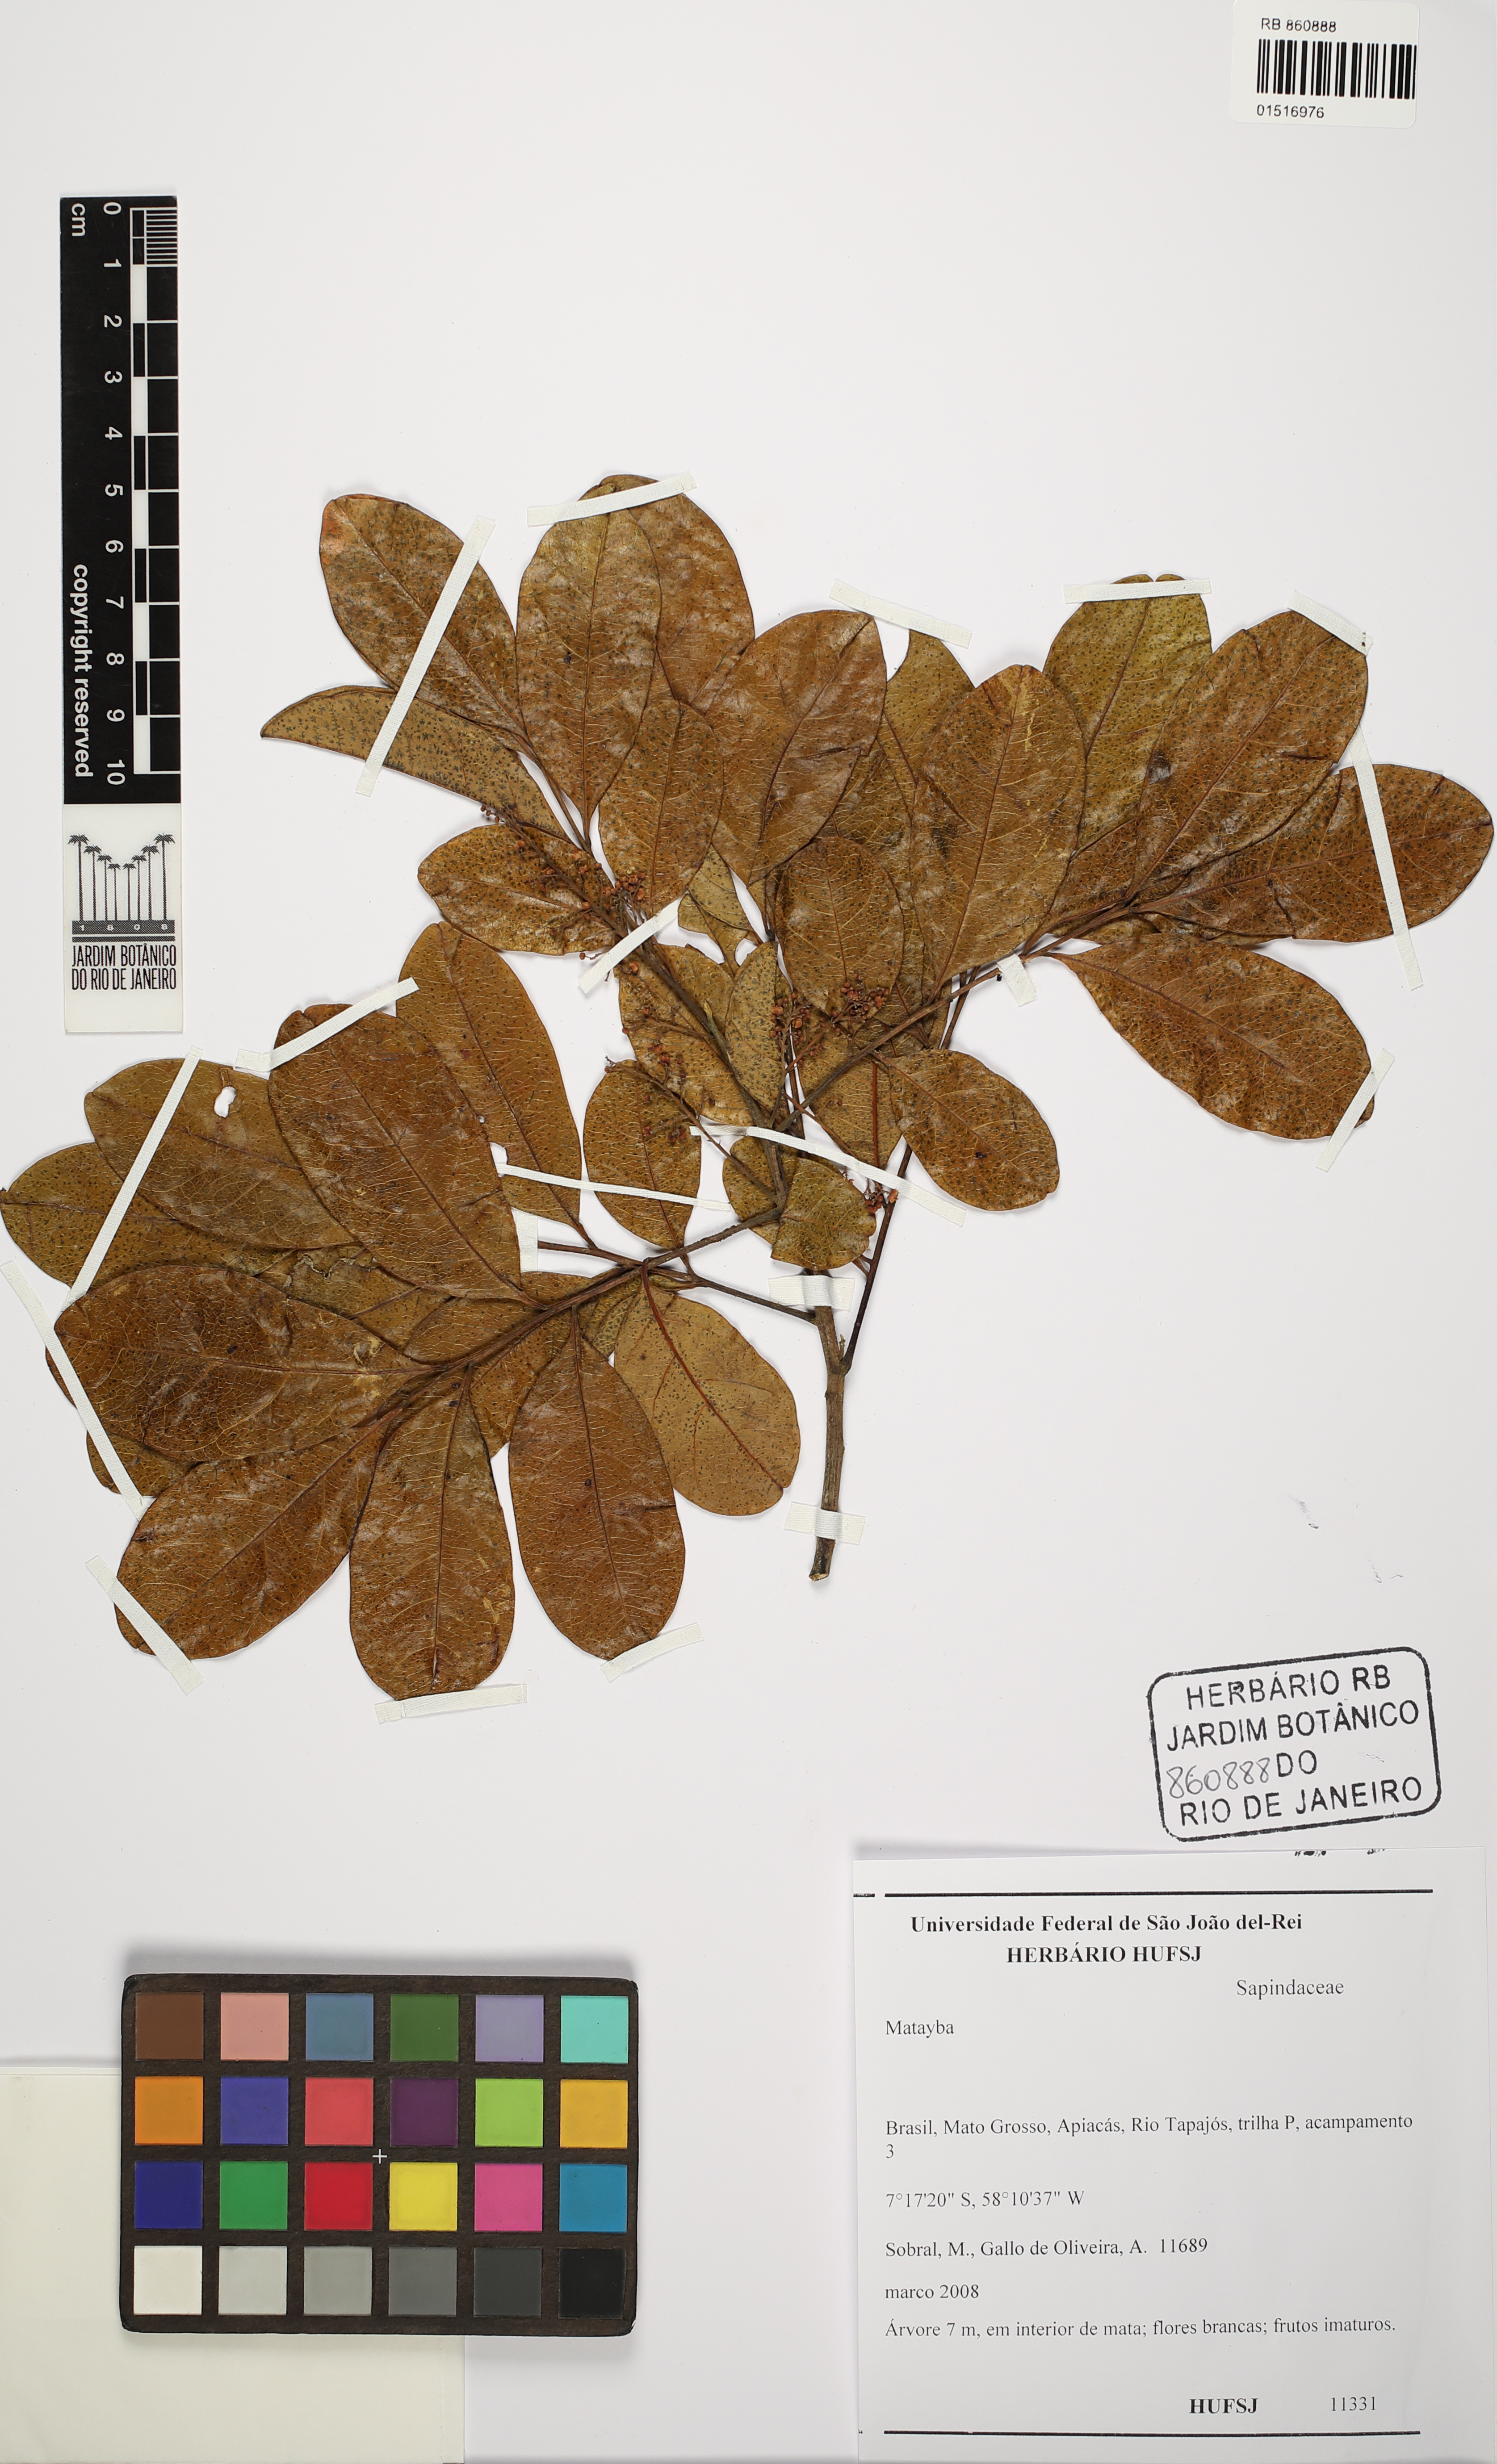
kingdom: Plantae
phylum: Tracheophyta
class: Magnoliopsida
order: Sapindales
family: Sapindaceae
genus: Matayba
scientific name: Matayba
